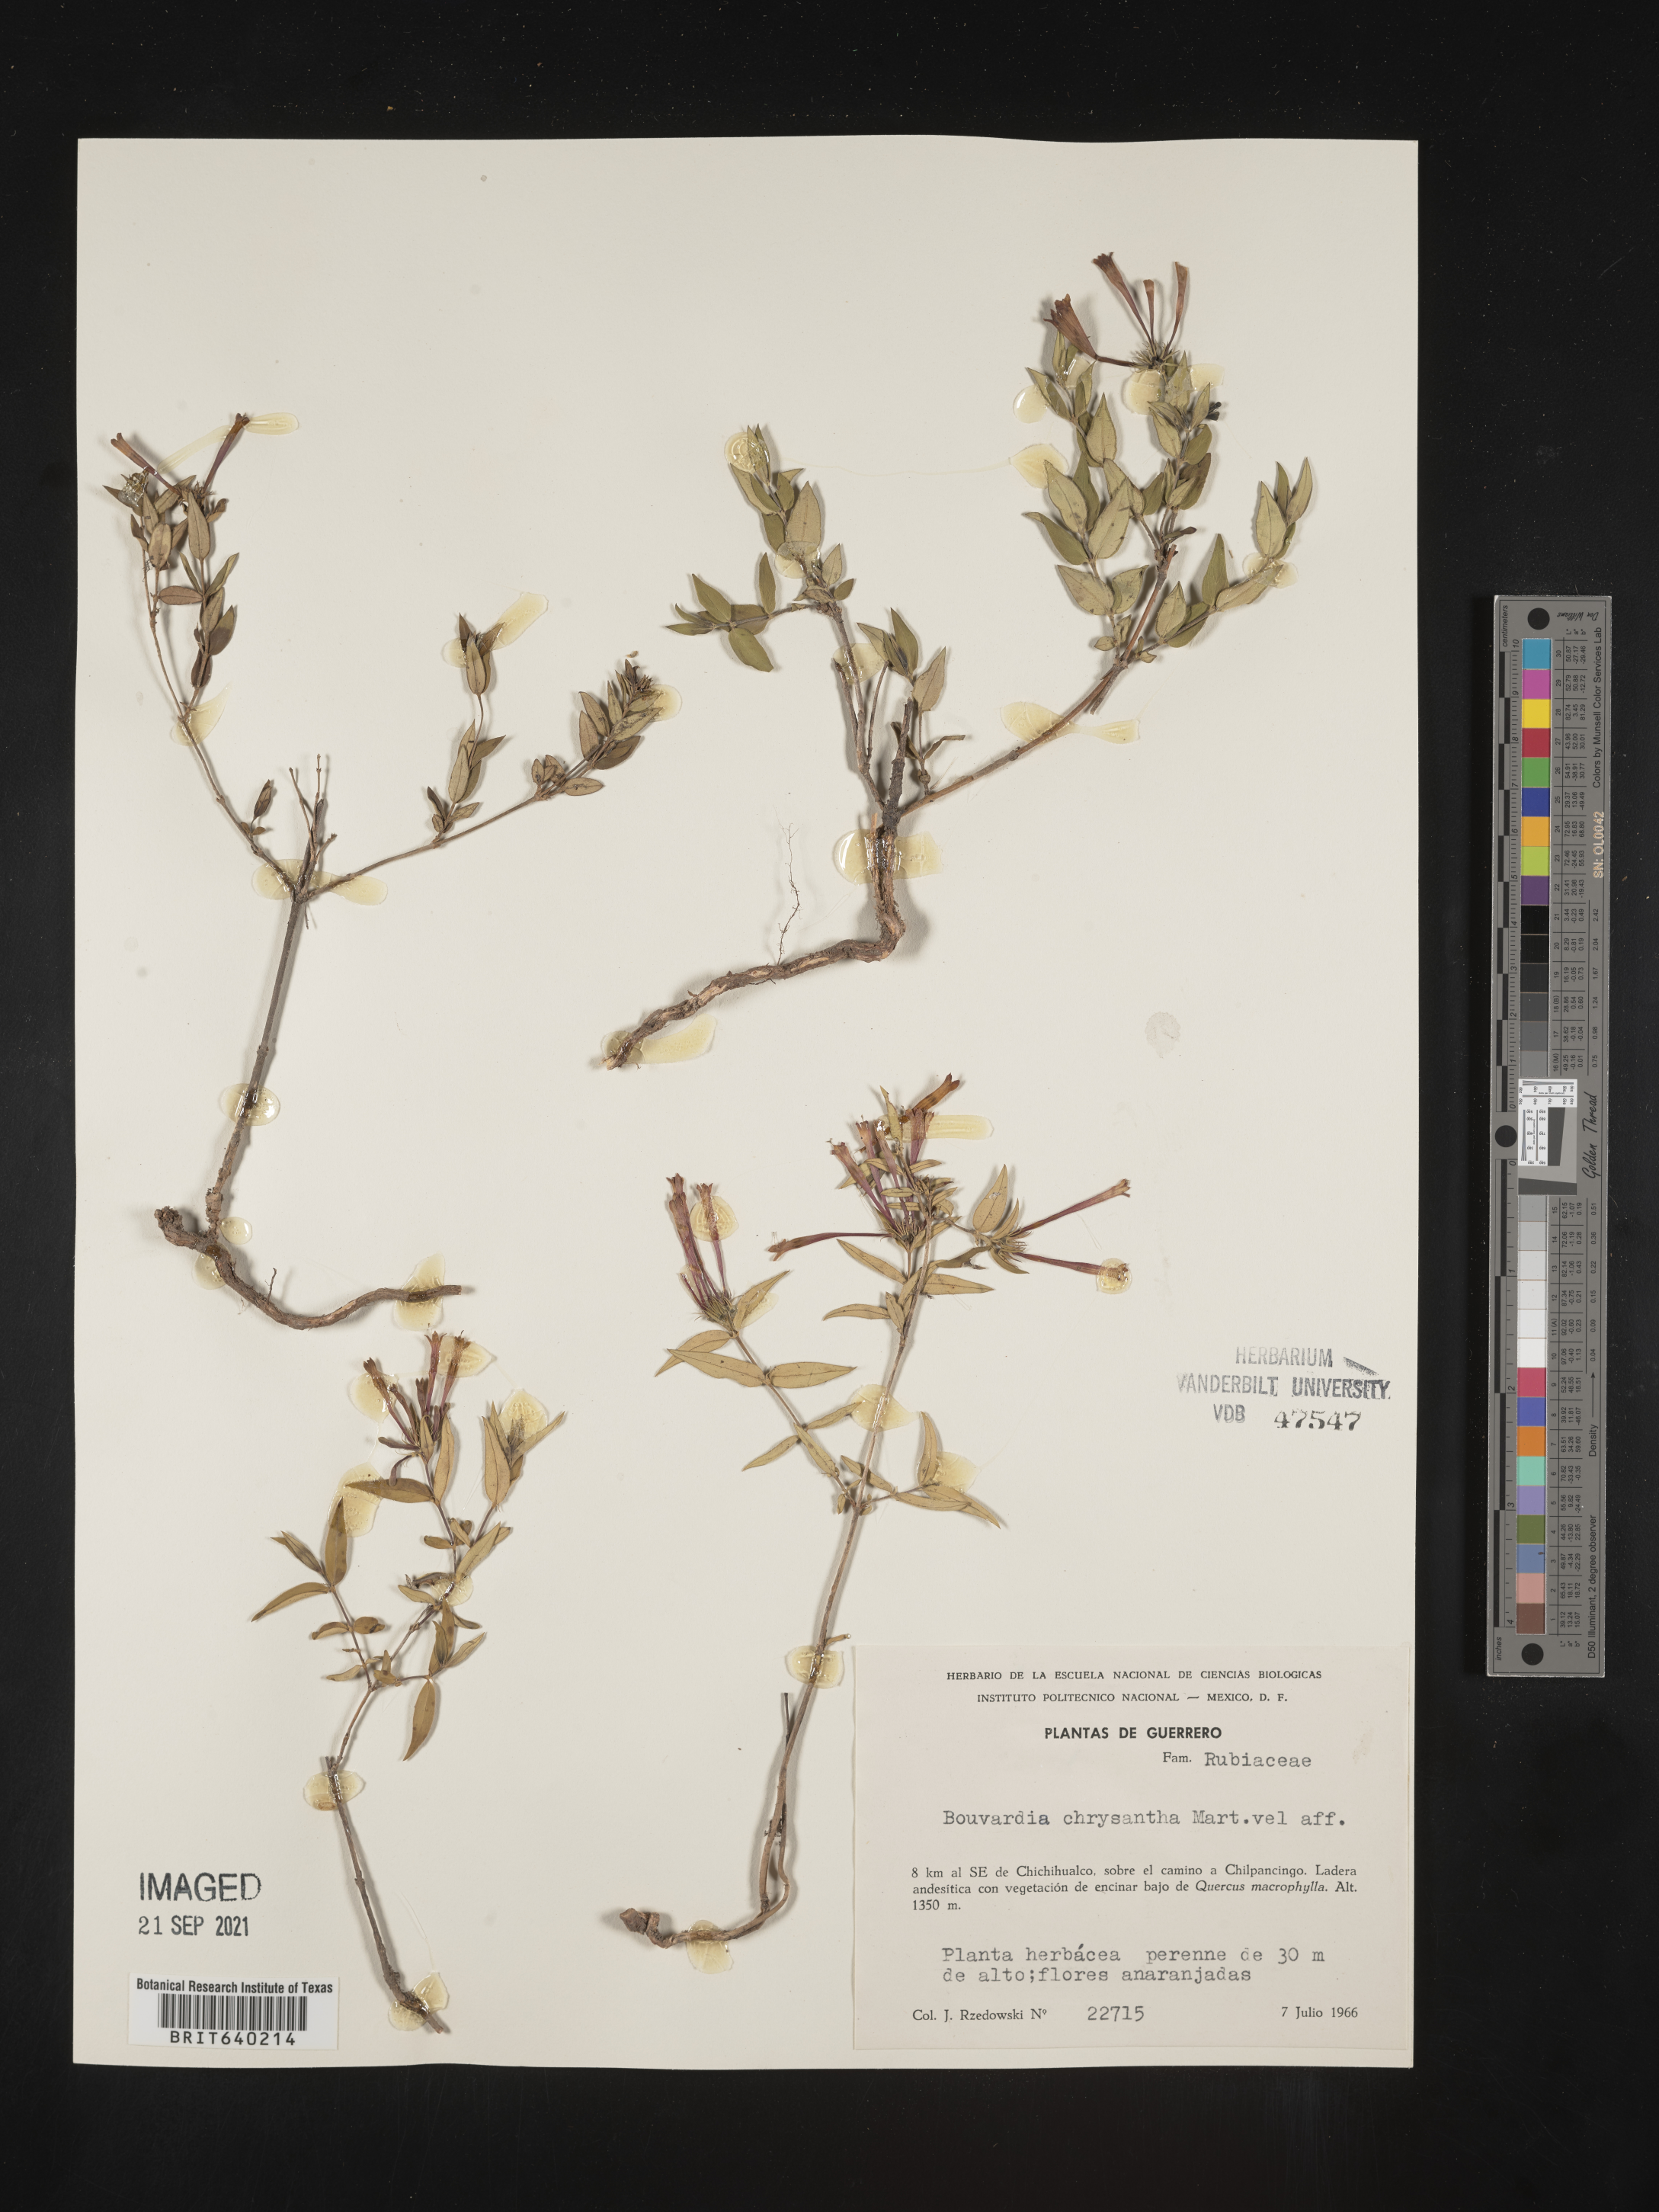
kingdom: Plantae
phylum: Tracheophyta
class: Magnoliopsida
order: Gentianales
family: Rubiaceae
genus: Bouvardia
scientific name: Bouvardia
